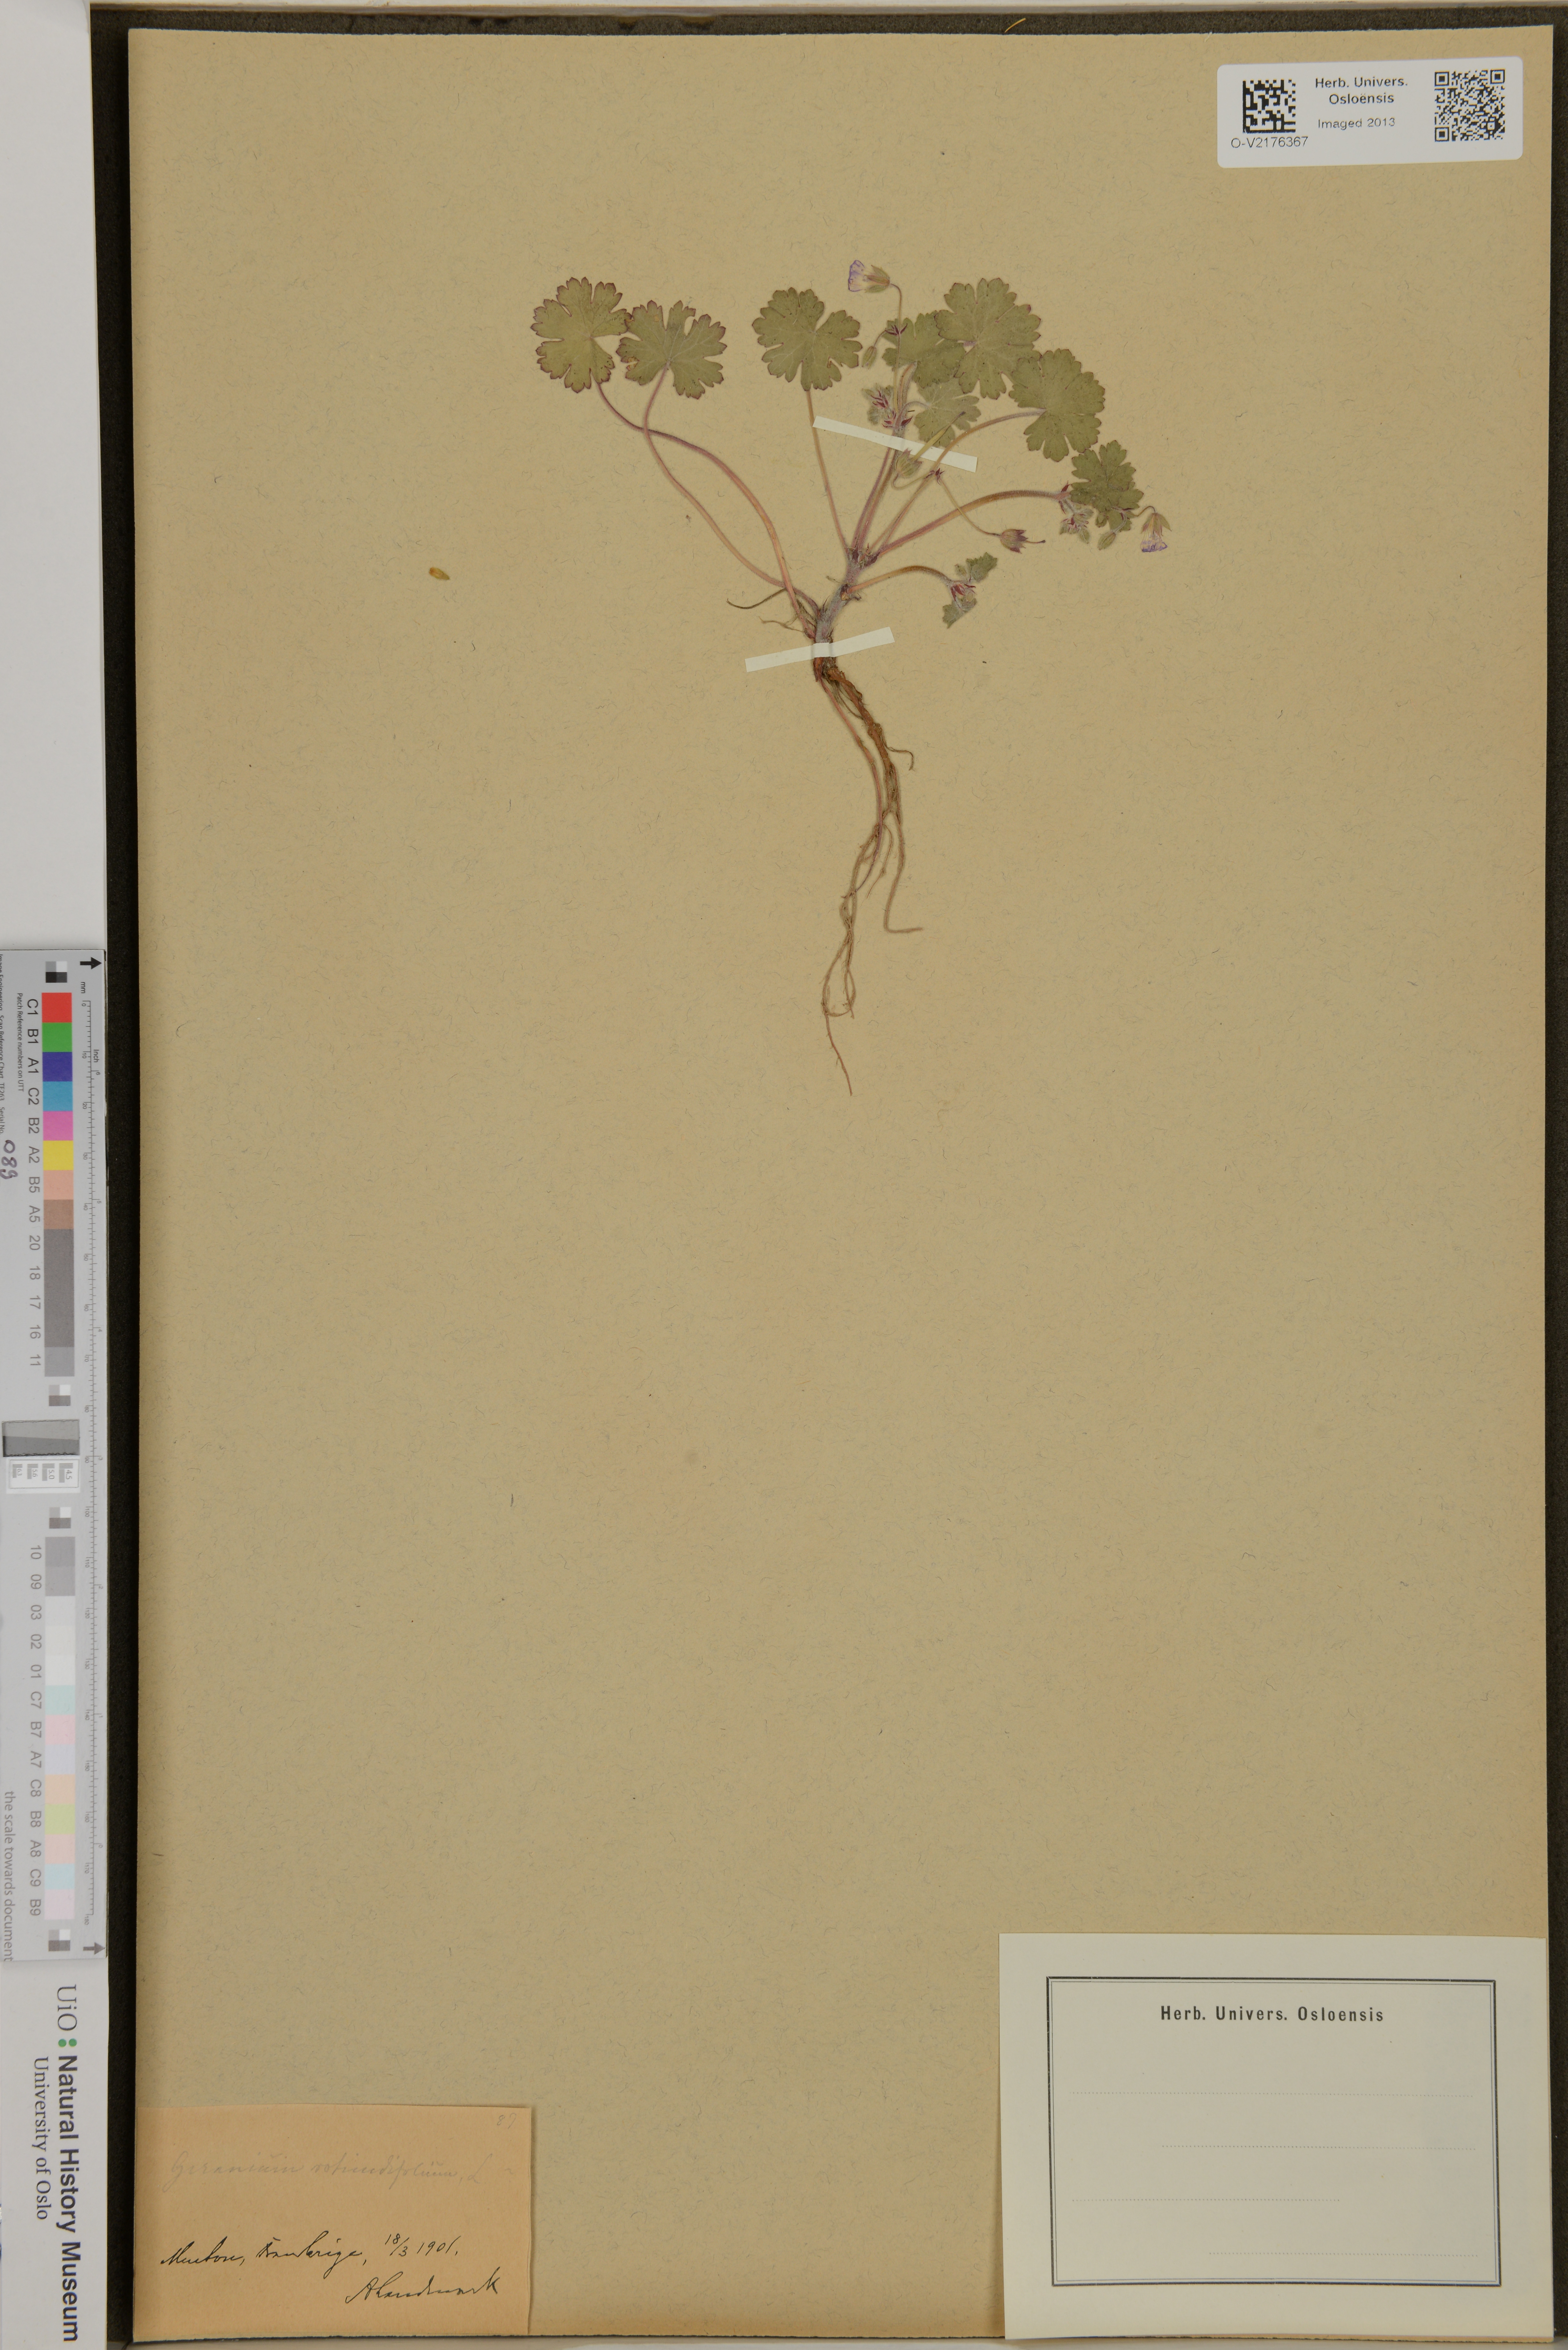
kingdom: Plantae
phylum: Tracheophyta
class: Magnoliopsida
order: Geraniales
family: Geraniaceae
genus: Geranium
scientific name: Geranium rotundifolium
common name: Round-leaved crane's-bill
